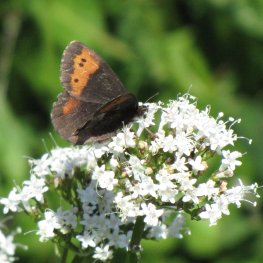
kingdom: Animalia
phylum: Arthropoda
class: Insecta
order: Lepidoptera
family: Nymphalidae
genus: Erebia
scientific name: Erebia vidleri
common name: Vidler's Alpine
